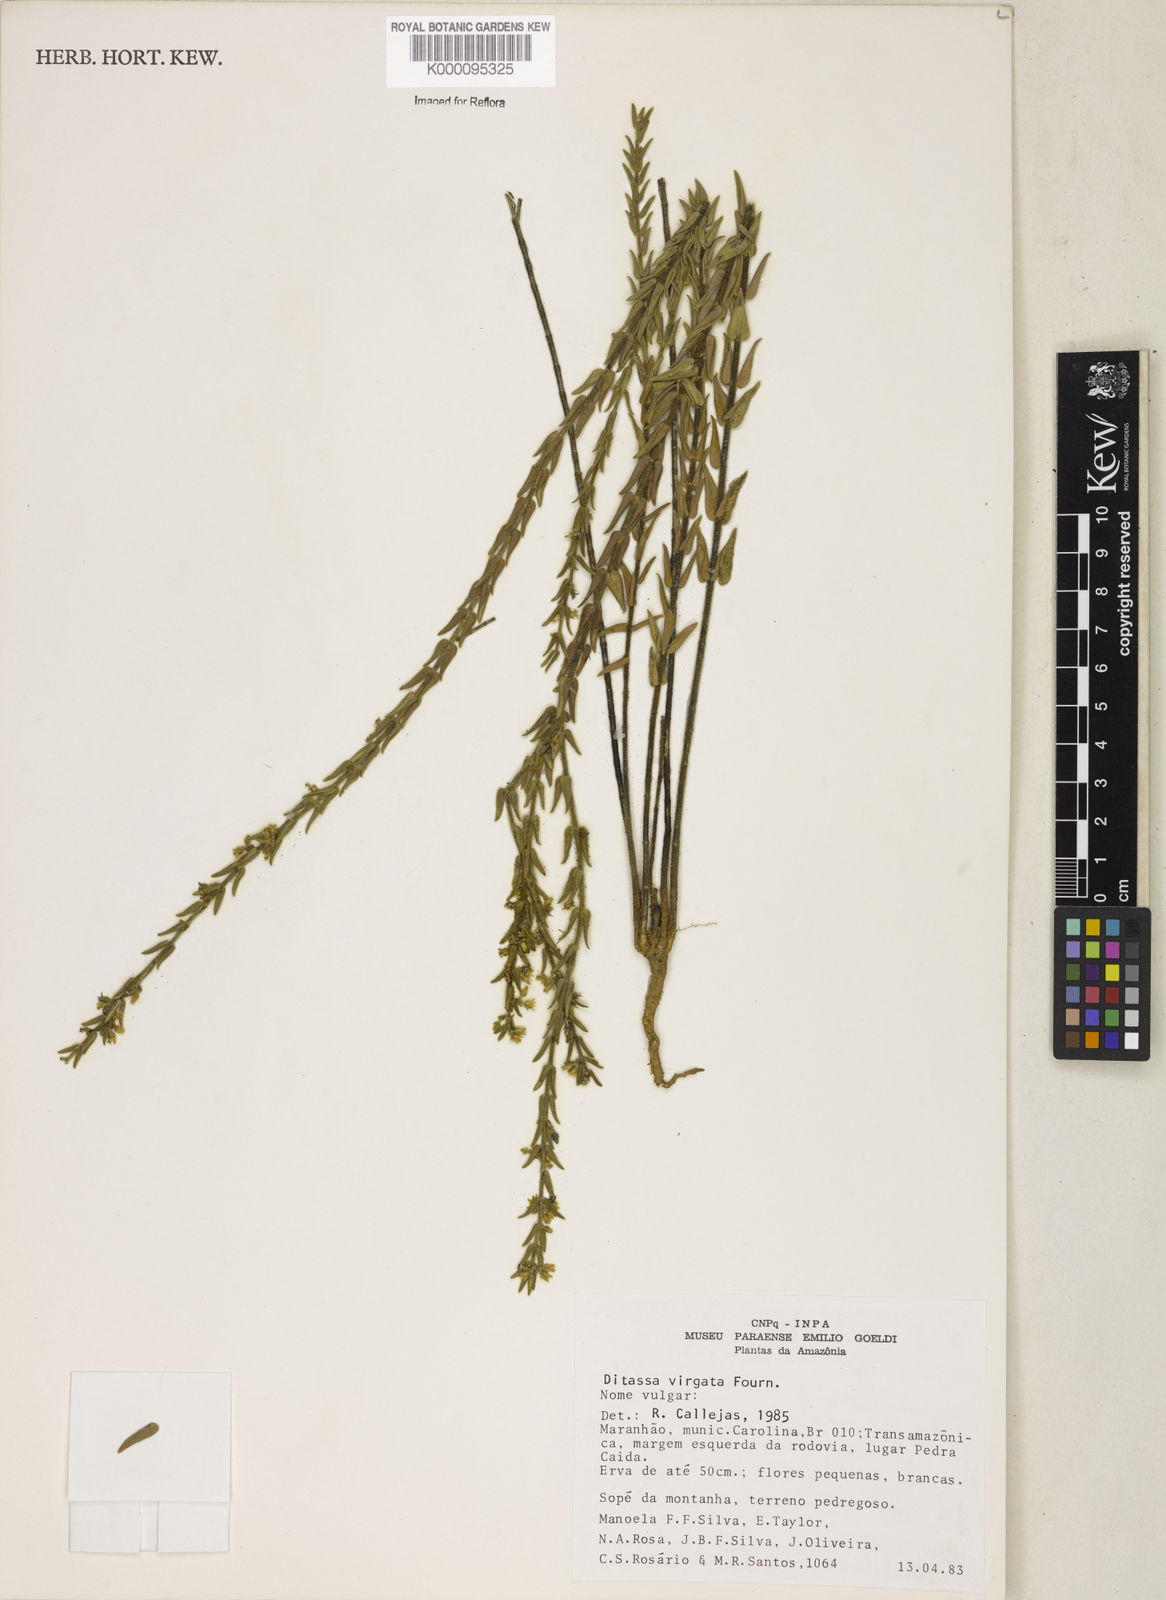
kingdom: Plantae
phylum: Tracheophyta
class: Magnoliopsida
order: Gentianales
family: Apocynaceae
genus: Minaria
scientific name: Minaria cordata
